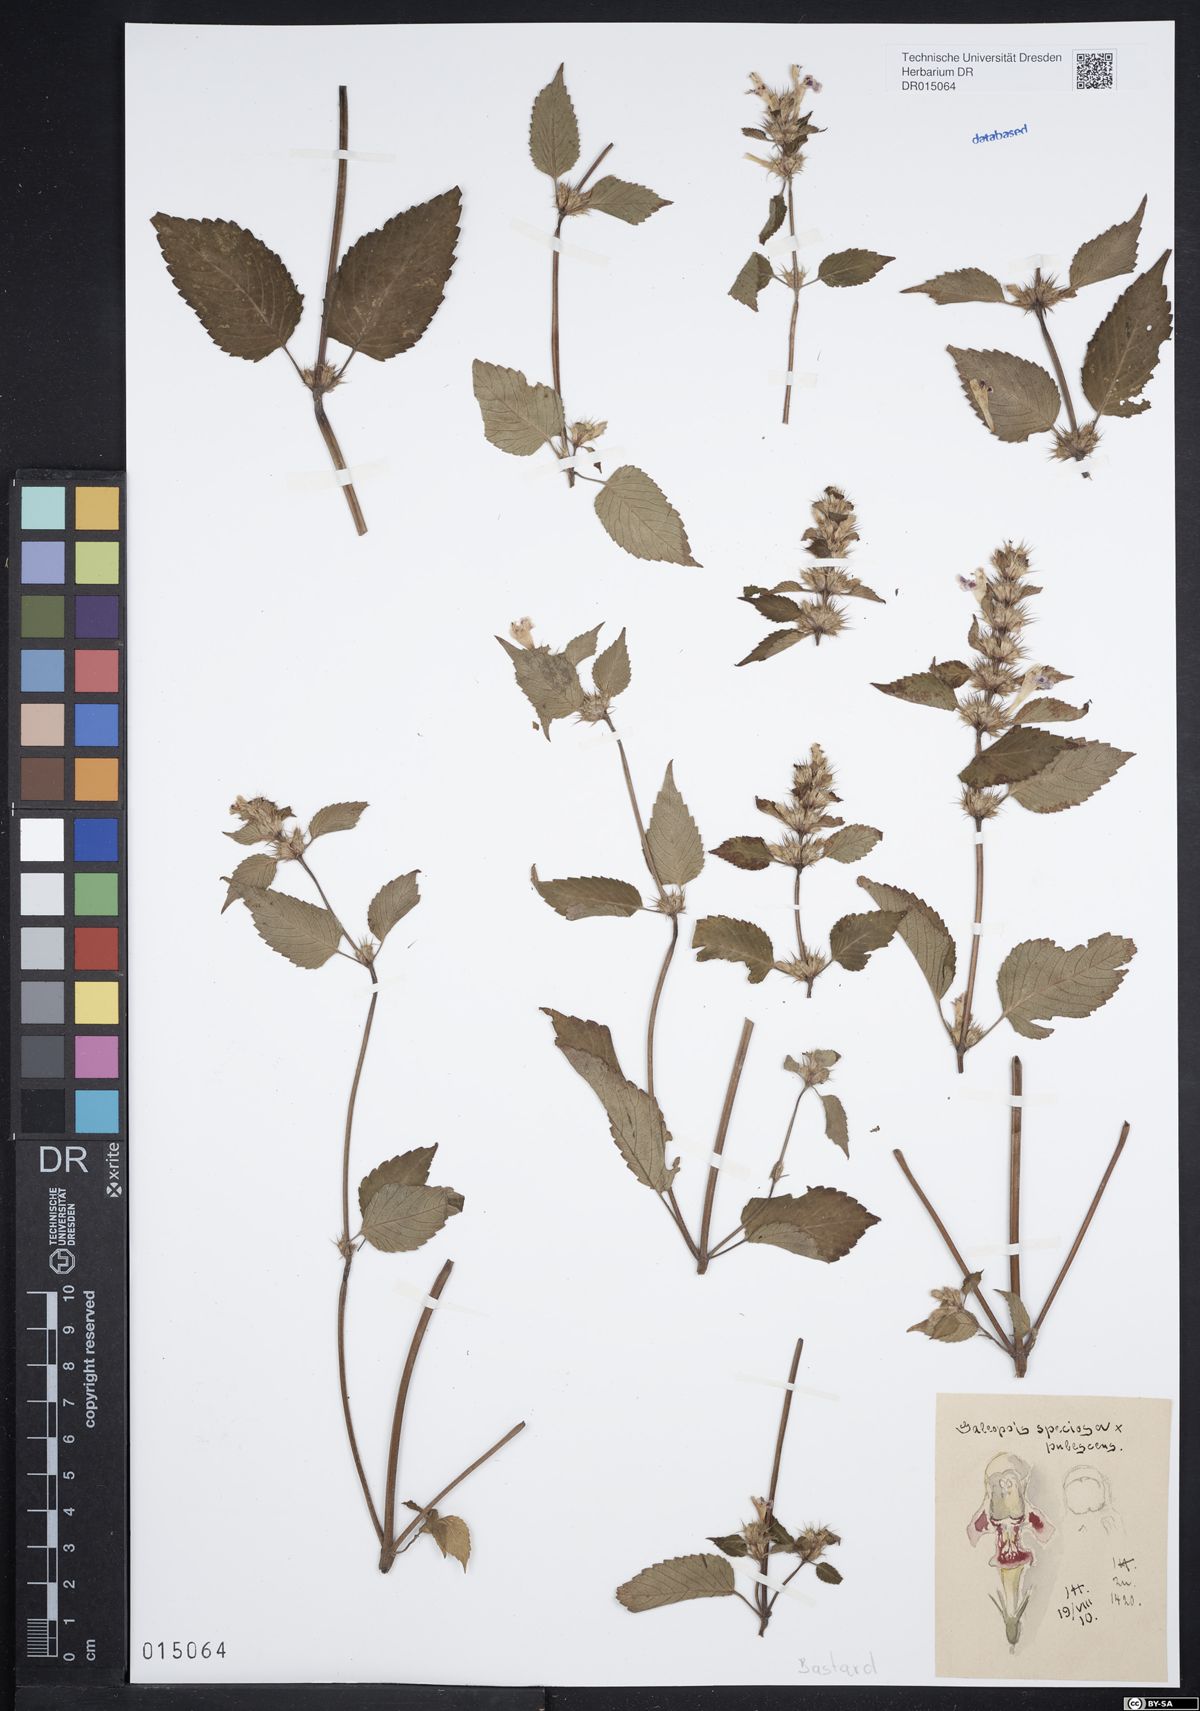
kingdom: Plantae
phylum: Tracheophyta
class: Magnoliopsida
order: Lamiales
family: Lamiaceae
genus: Galeopsis
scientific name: Galeopsis speciosa
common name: Large-flowered hemp-nettle
